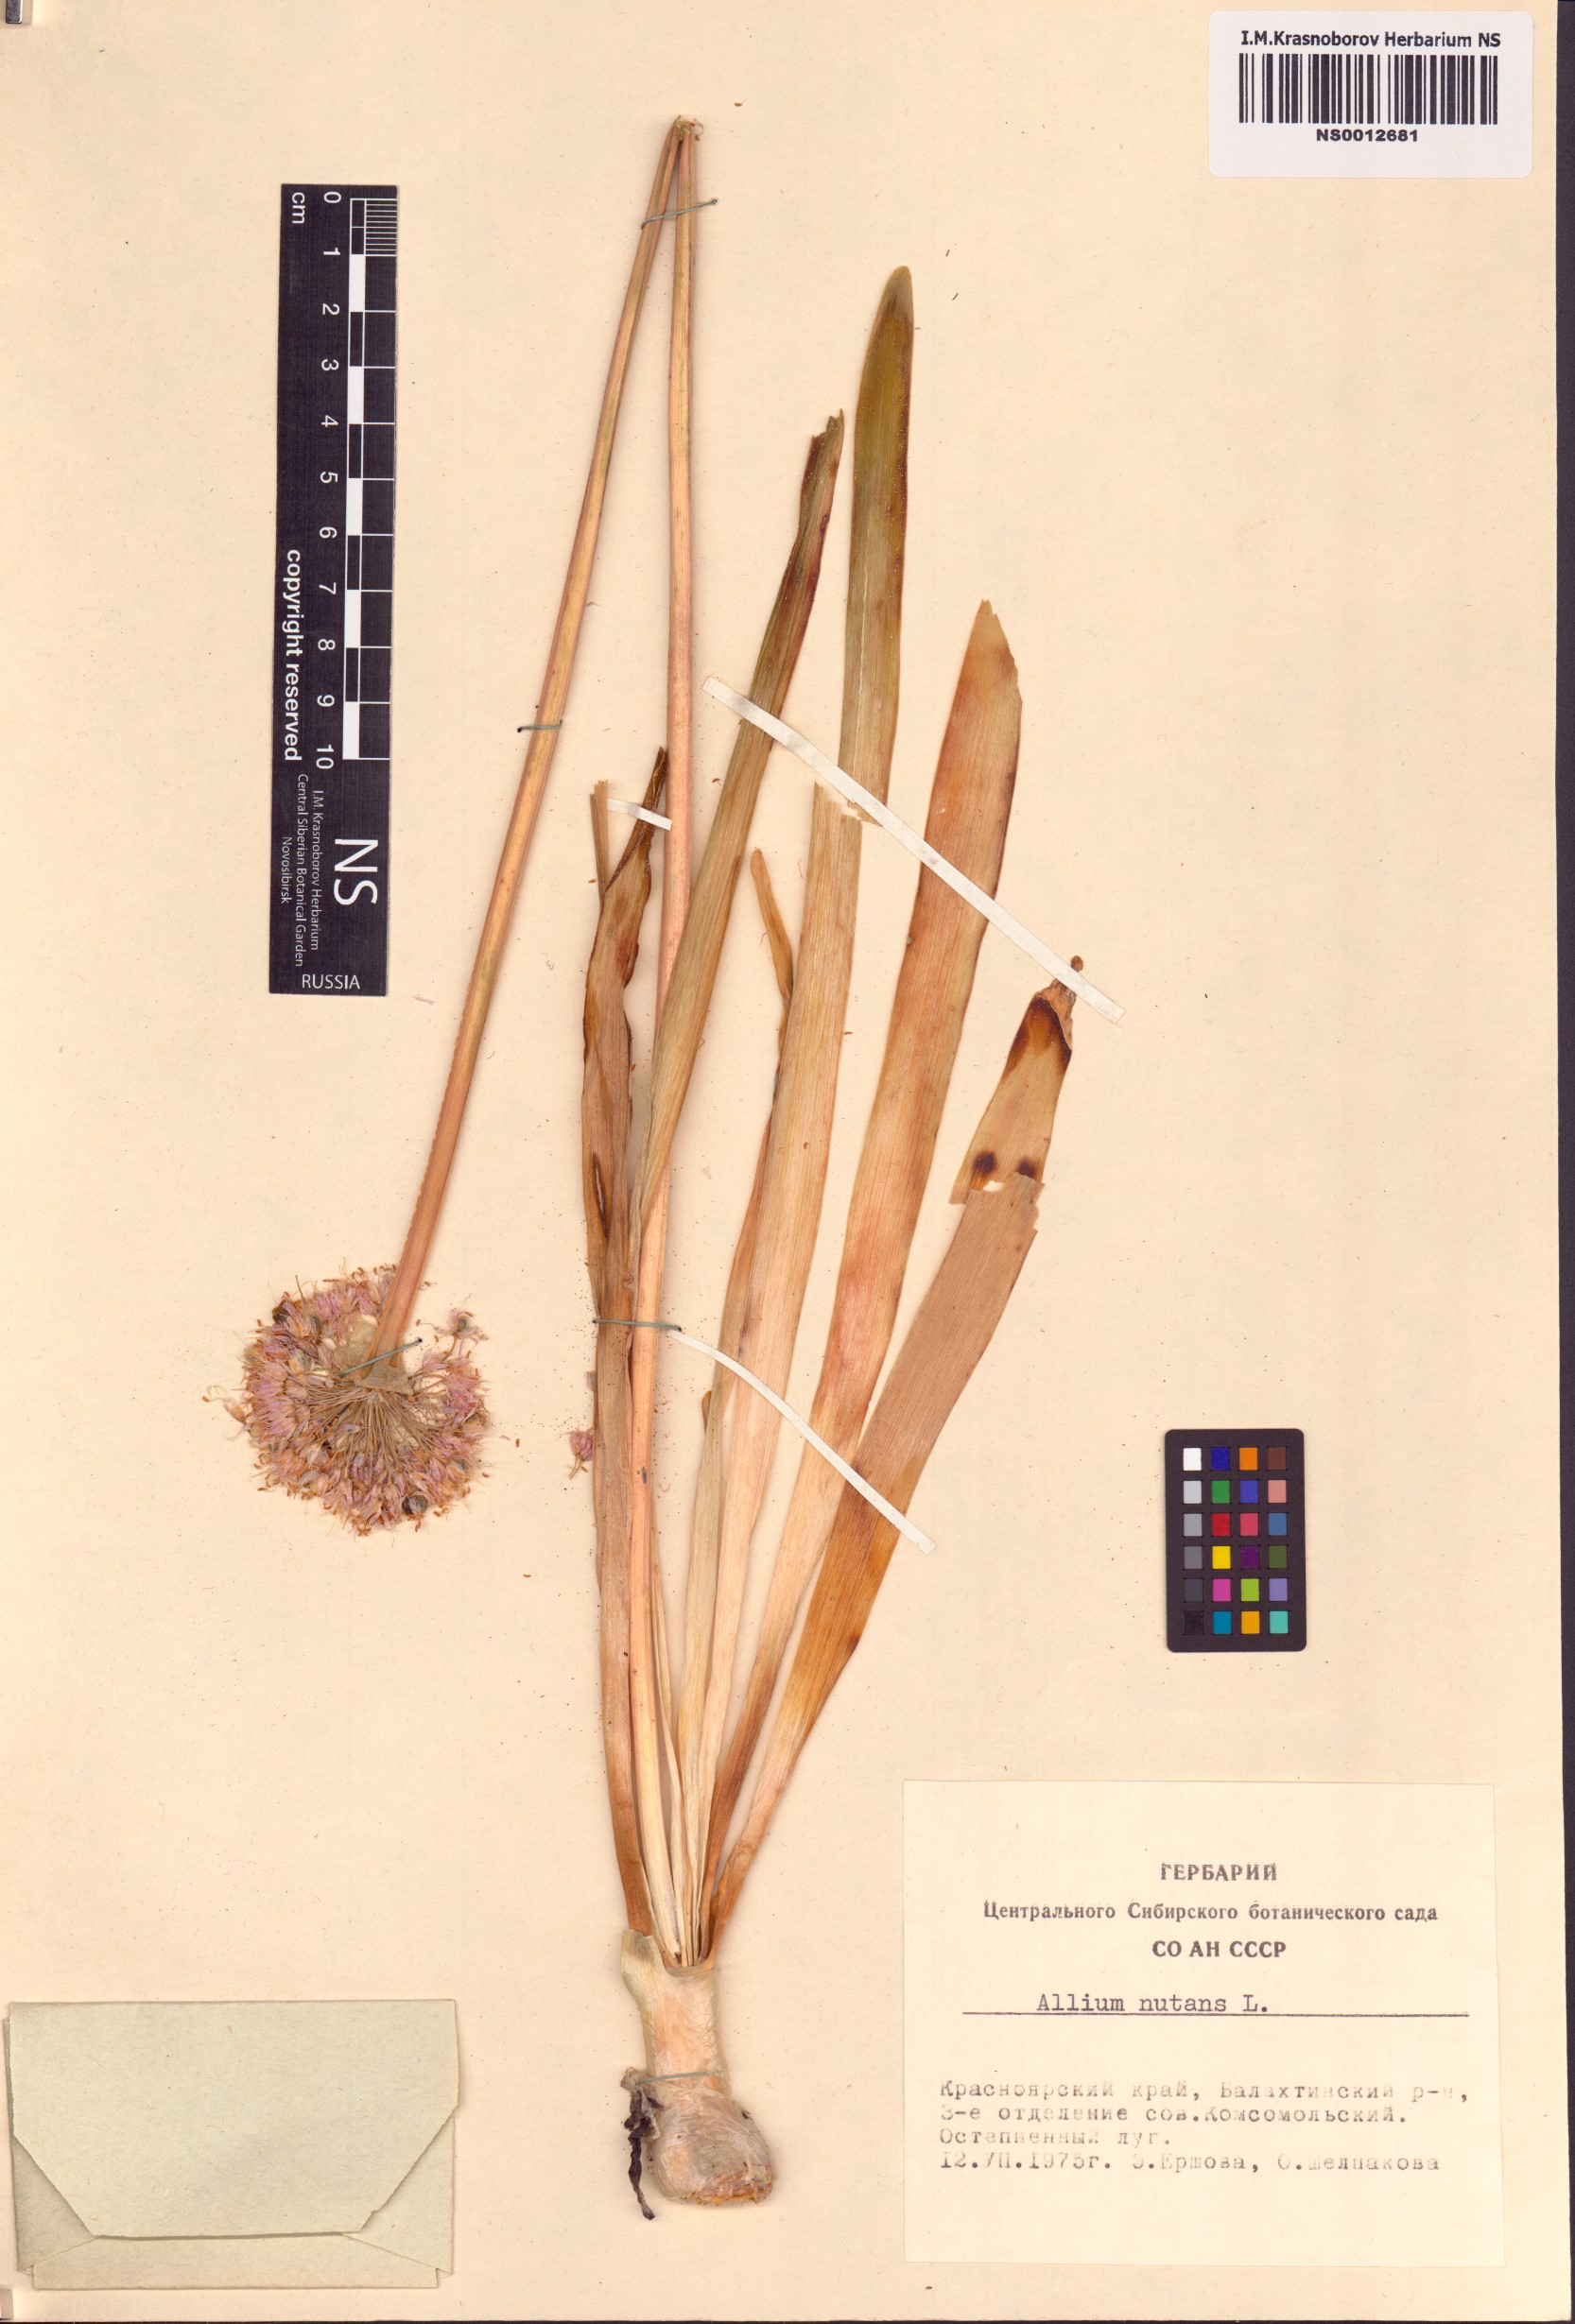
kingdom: Plantae
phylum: Tracheophyta
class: Liliopsida
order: Asparagales
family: Amaryllidaceae
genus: Allium
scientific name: Allium nutans
